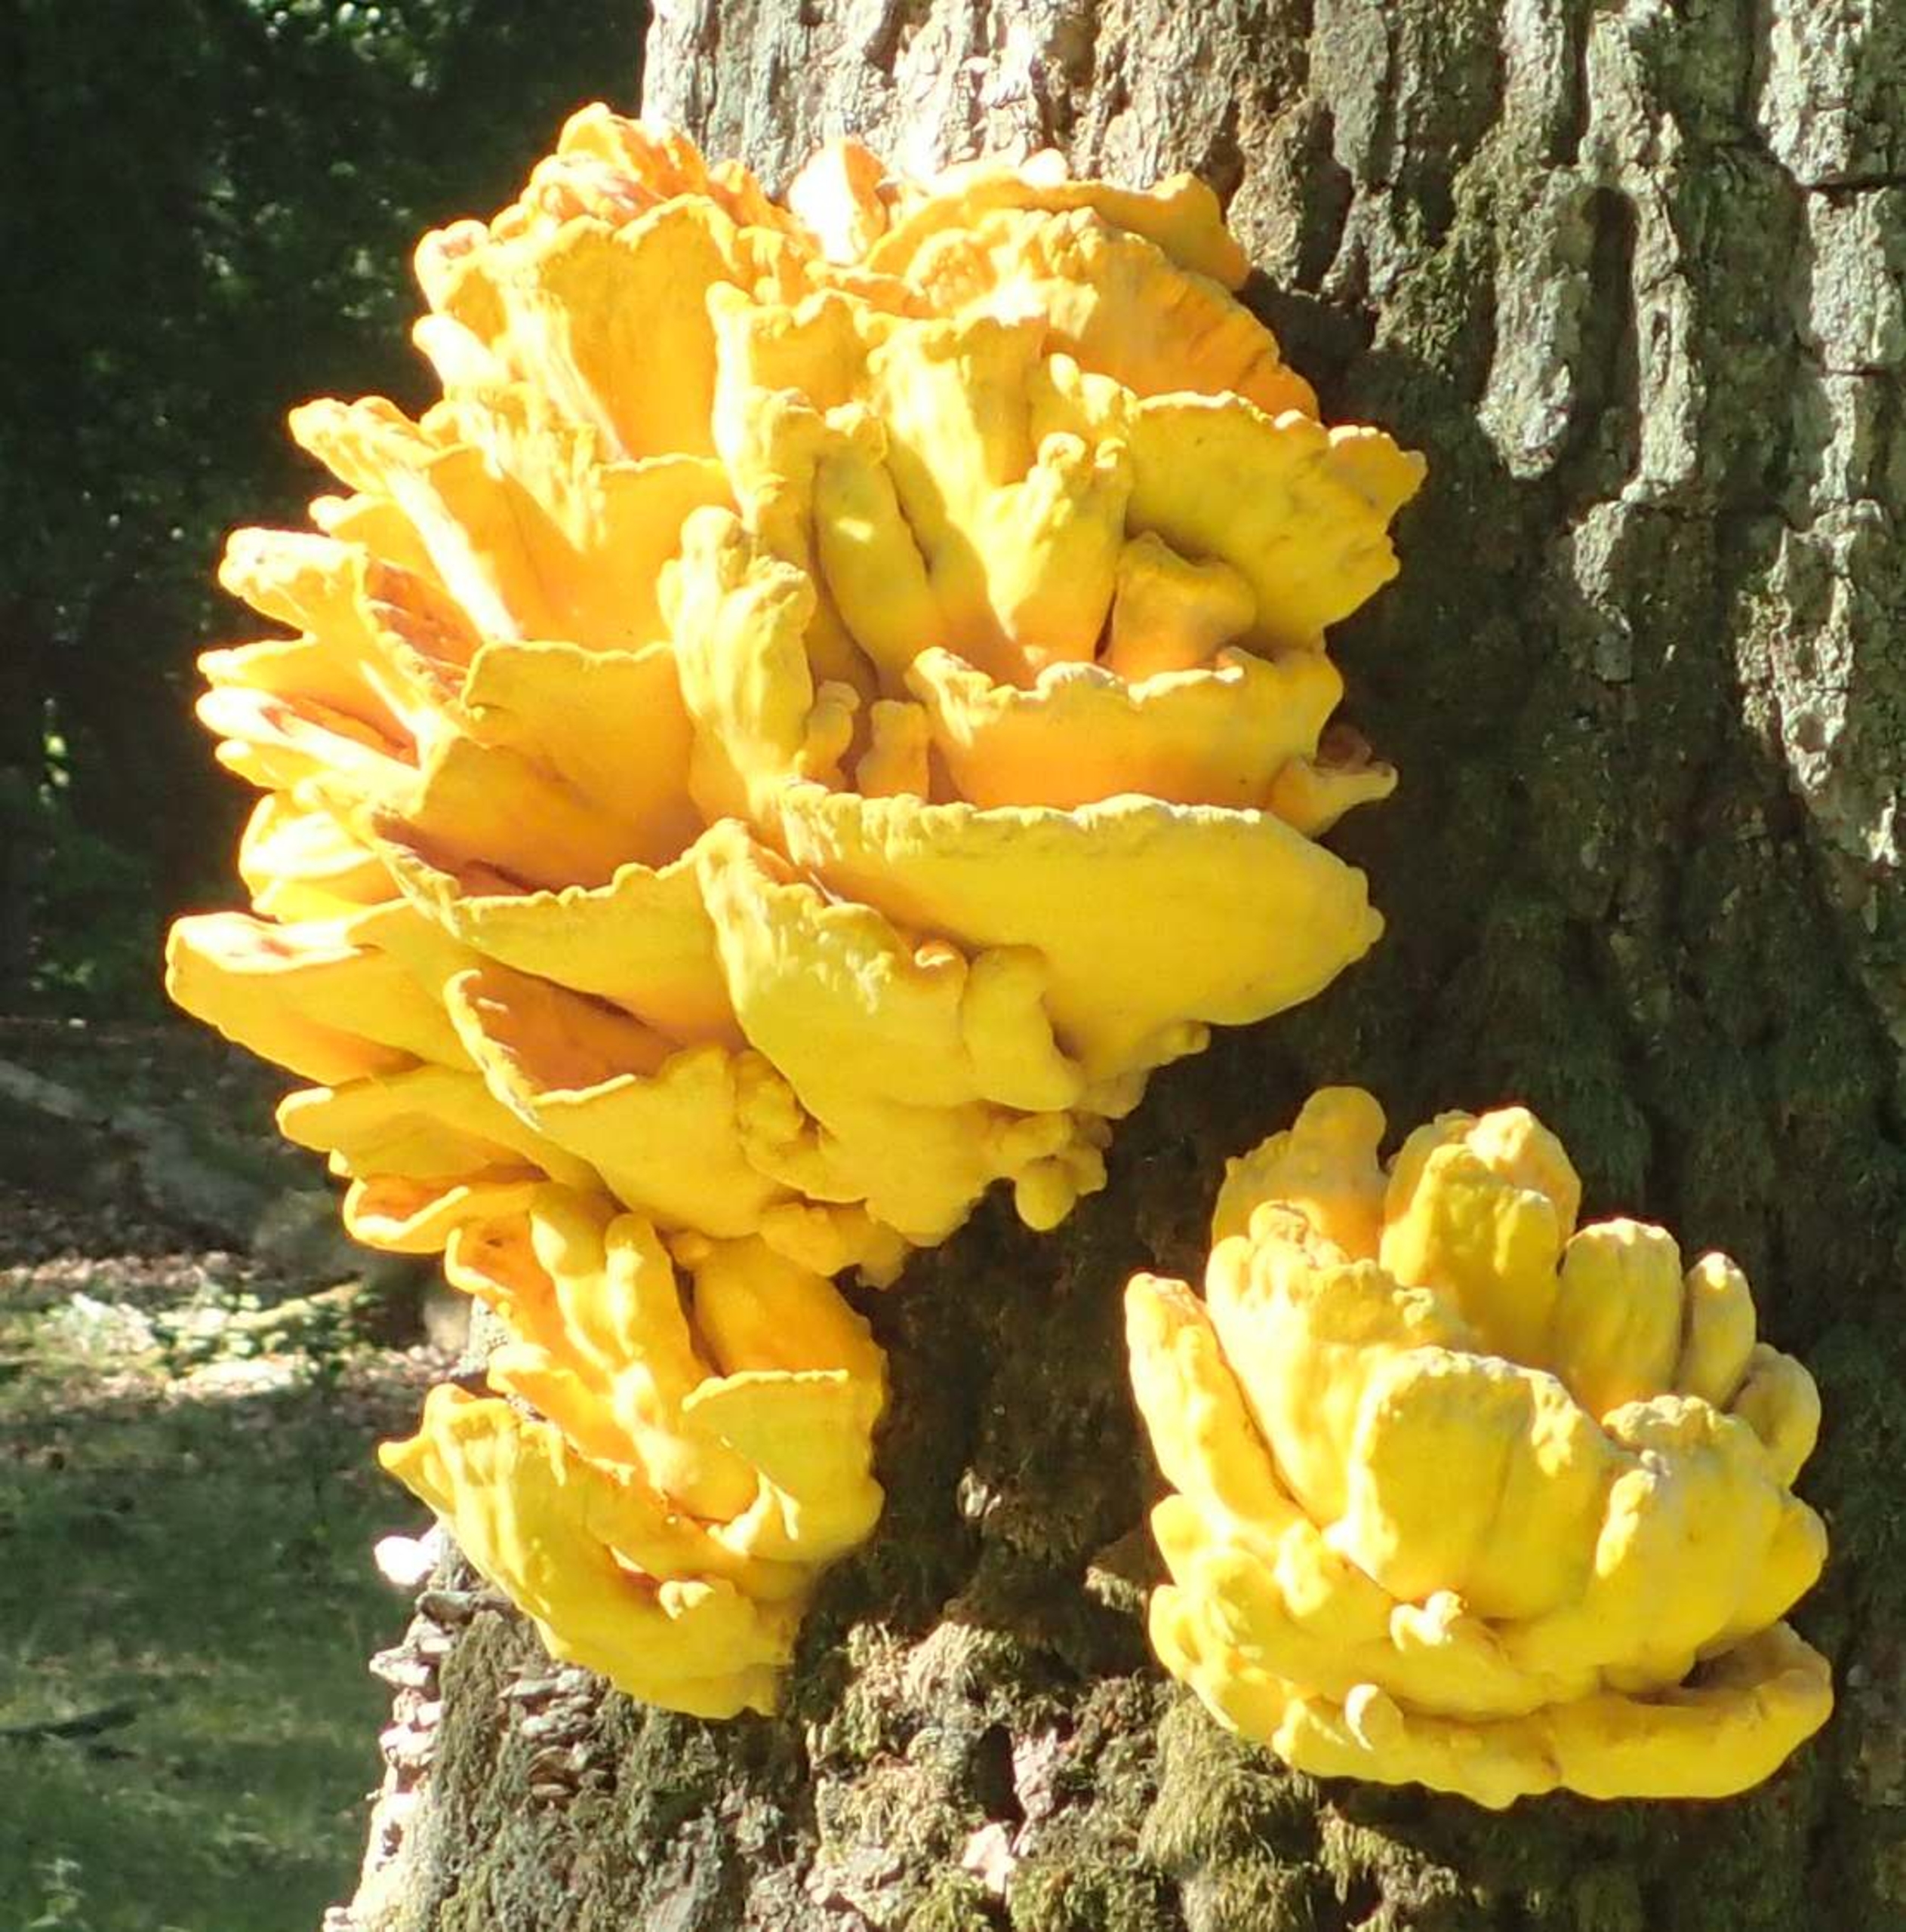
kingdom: Fungi
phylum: Basidiomycota
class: Agaricomycetes
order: Polyporales
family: Laetiporaceae
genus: Laetiporus
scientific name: Laetiporus sulphureus
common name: Svovlporesvamp
